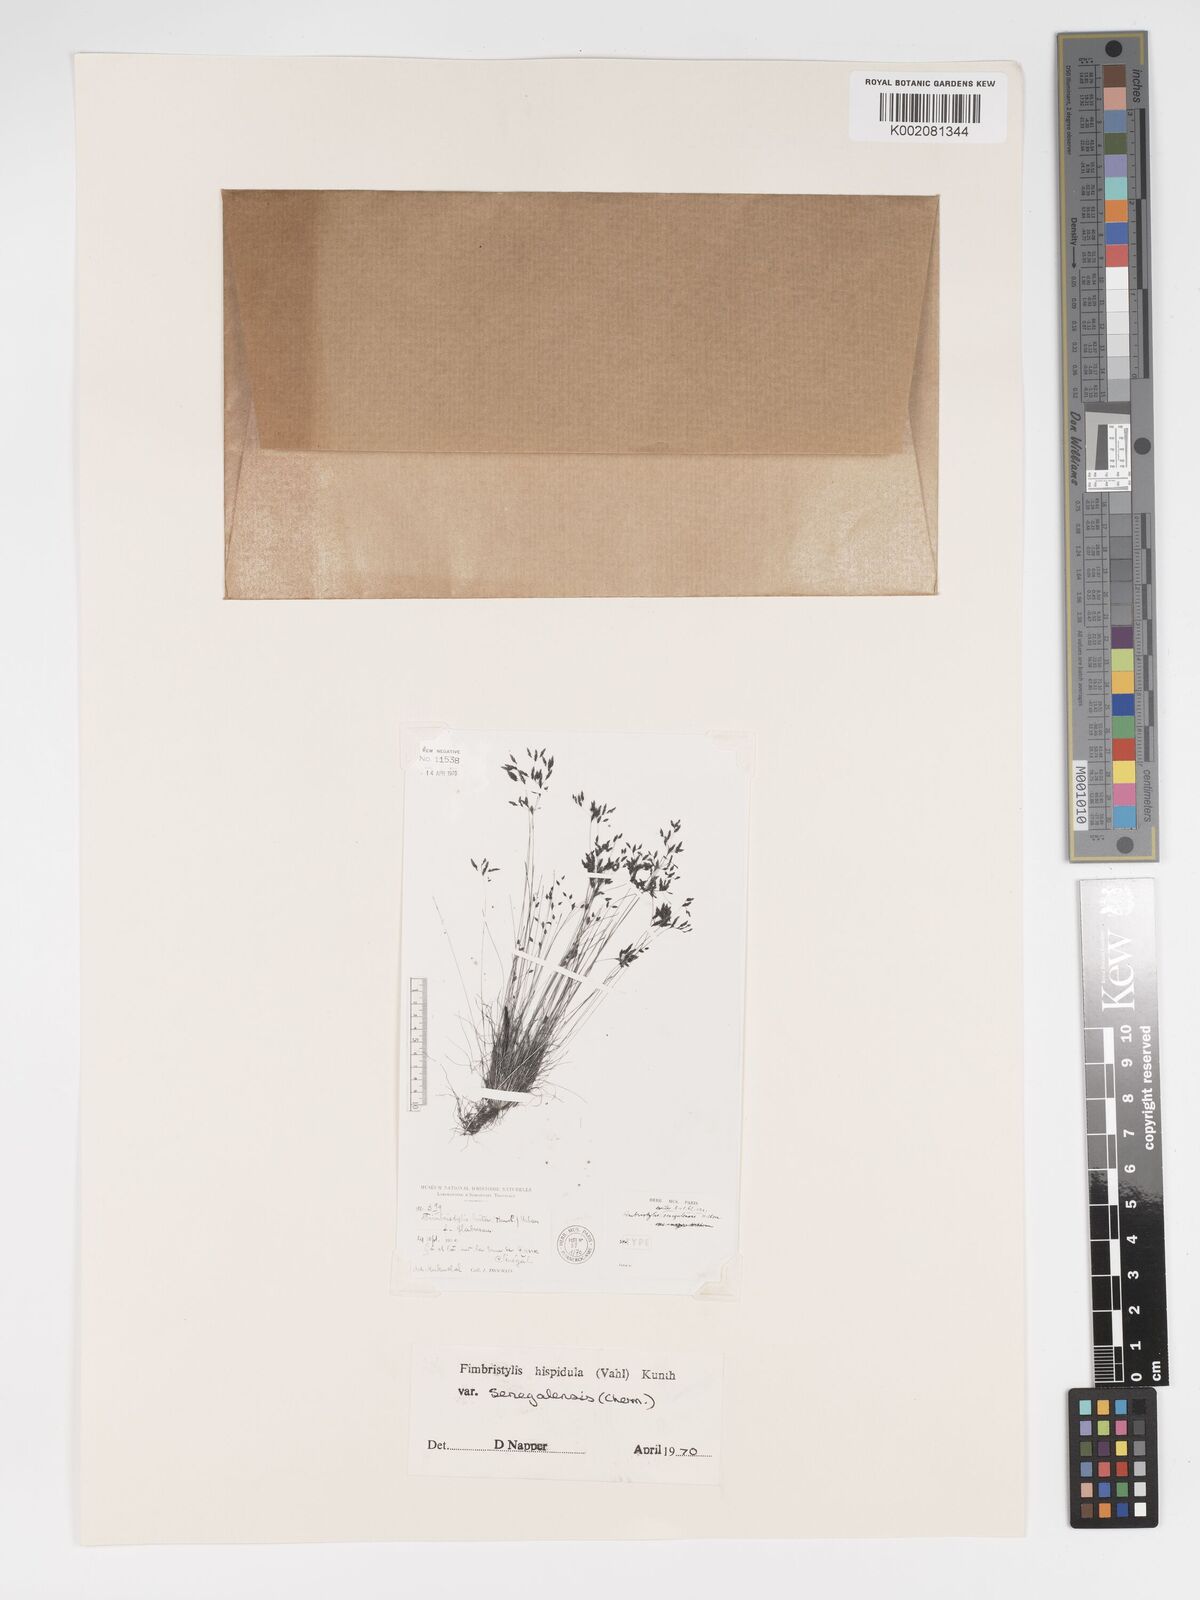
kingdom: Plantae
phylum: Tracheophyta
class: Liliopsida
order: Poales
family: Cyperaceae
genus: Bulbostylis
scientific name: Bulbostylis hispidula
